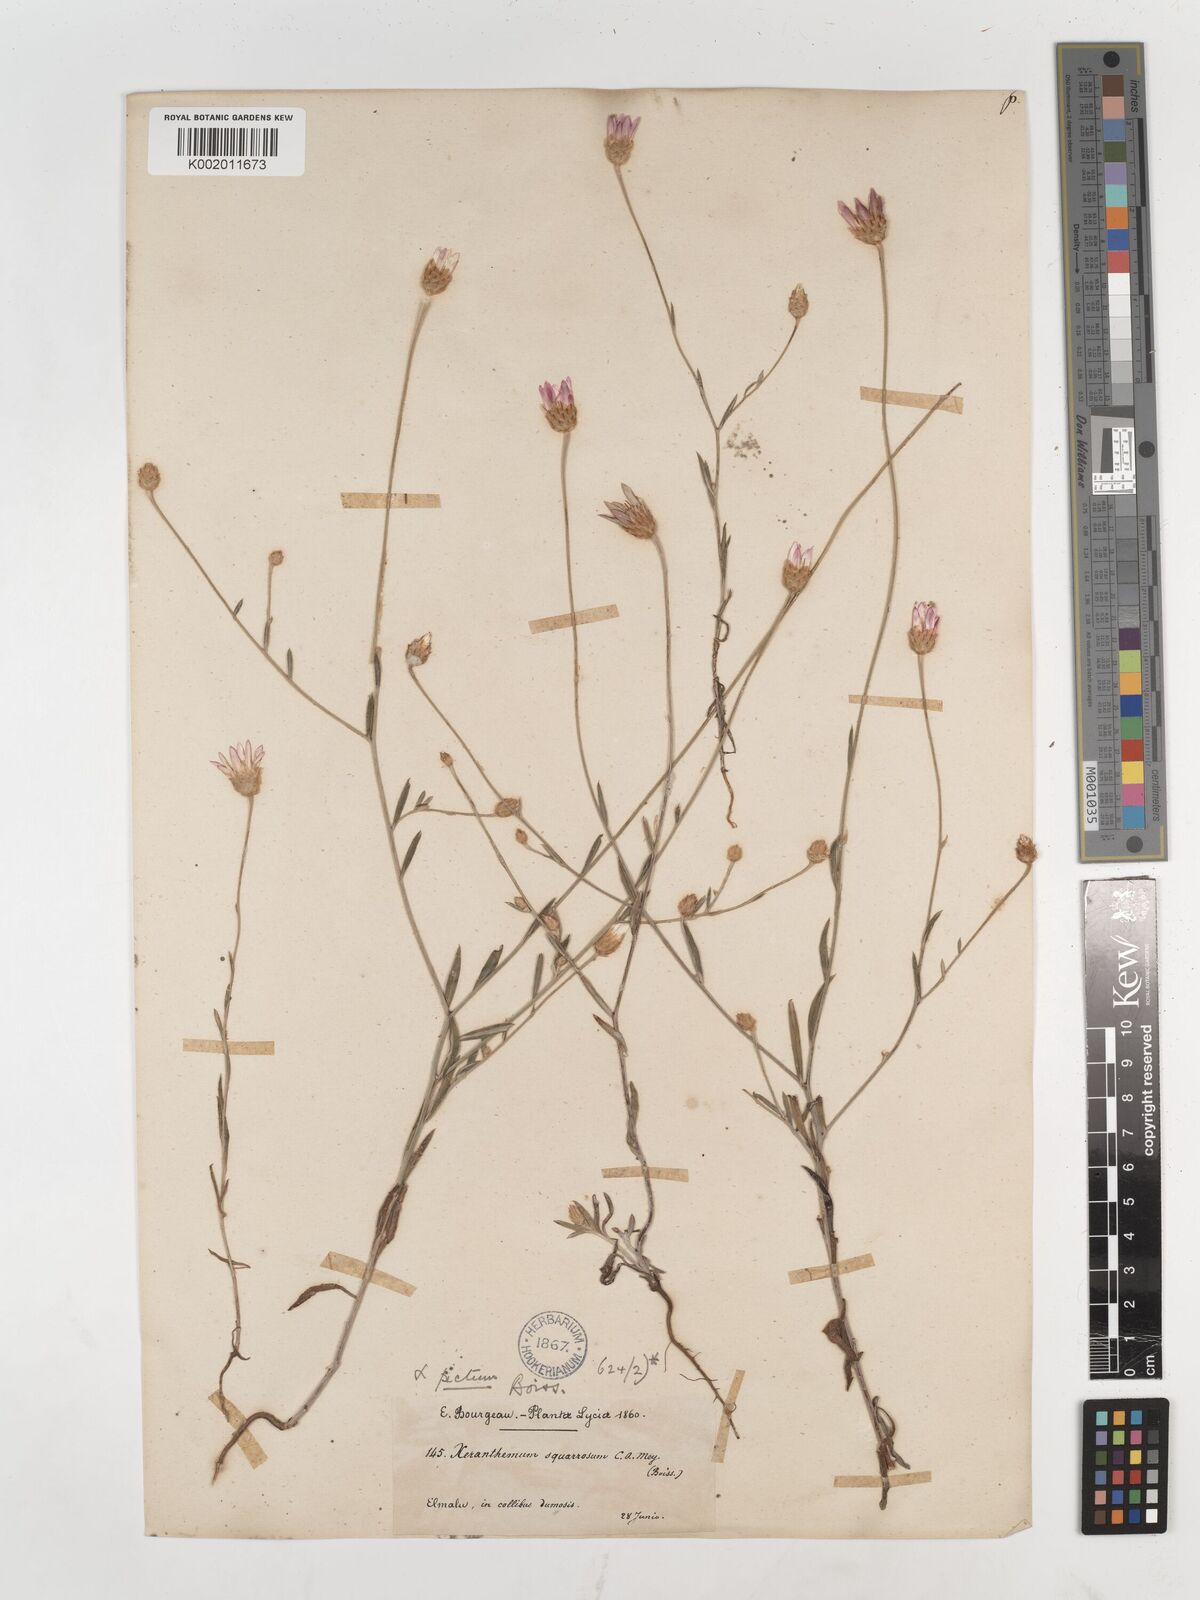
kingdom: Plantae
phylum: Tracheophyta
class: Magnoliopsida
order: Asterales
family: Asteraceae
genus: Xeranthemum
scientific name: Xeranthemum squarrosum
